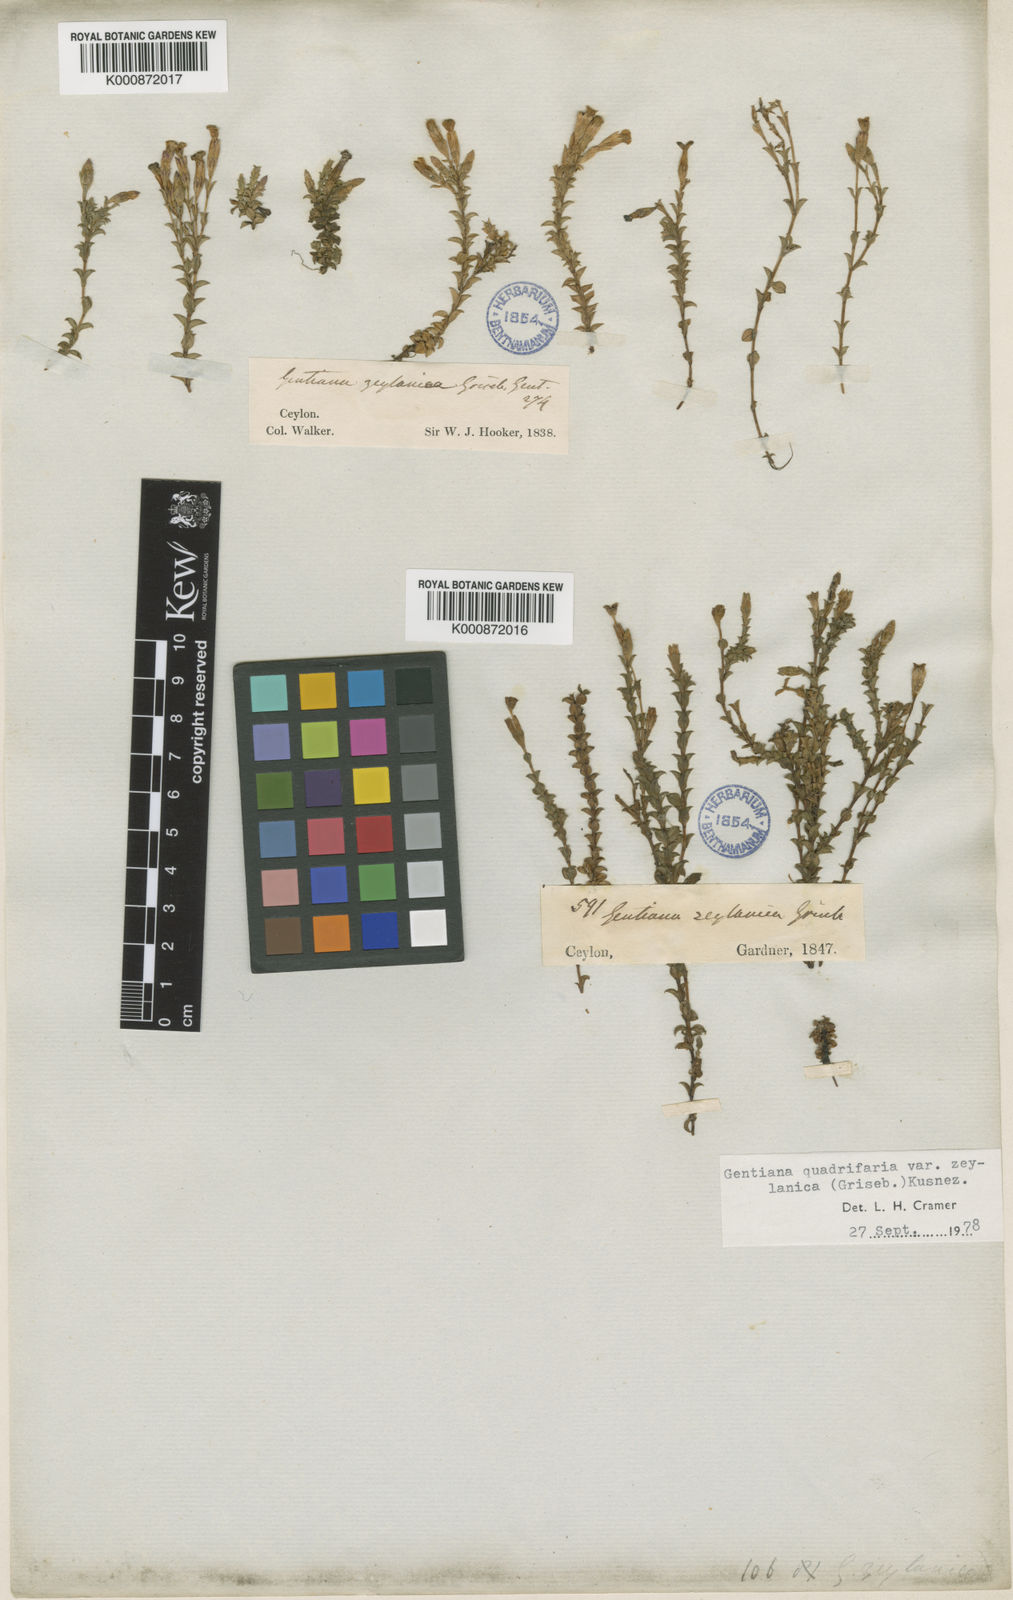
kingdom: Plantae
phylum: Tracheophyta
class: Magnoliopsida
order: Gentianales
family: Gentianaceae
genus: Gentiana
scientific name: Gentiana quadrifaria
